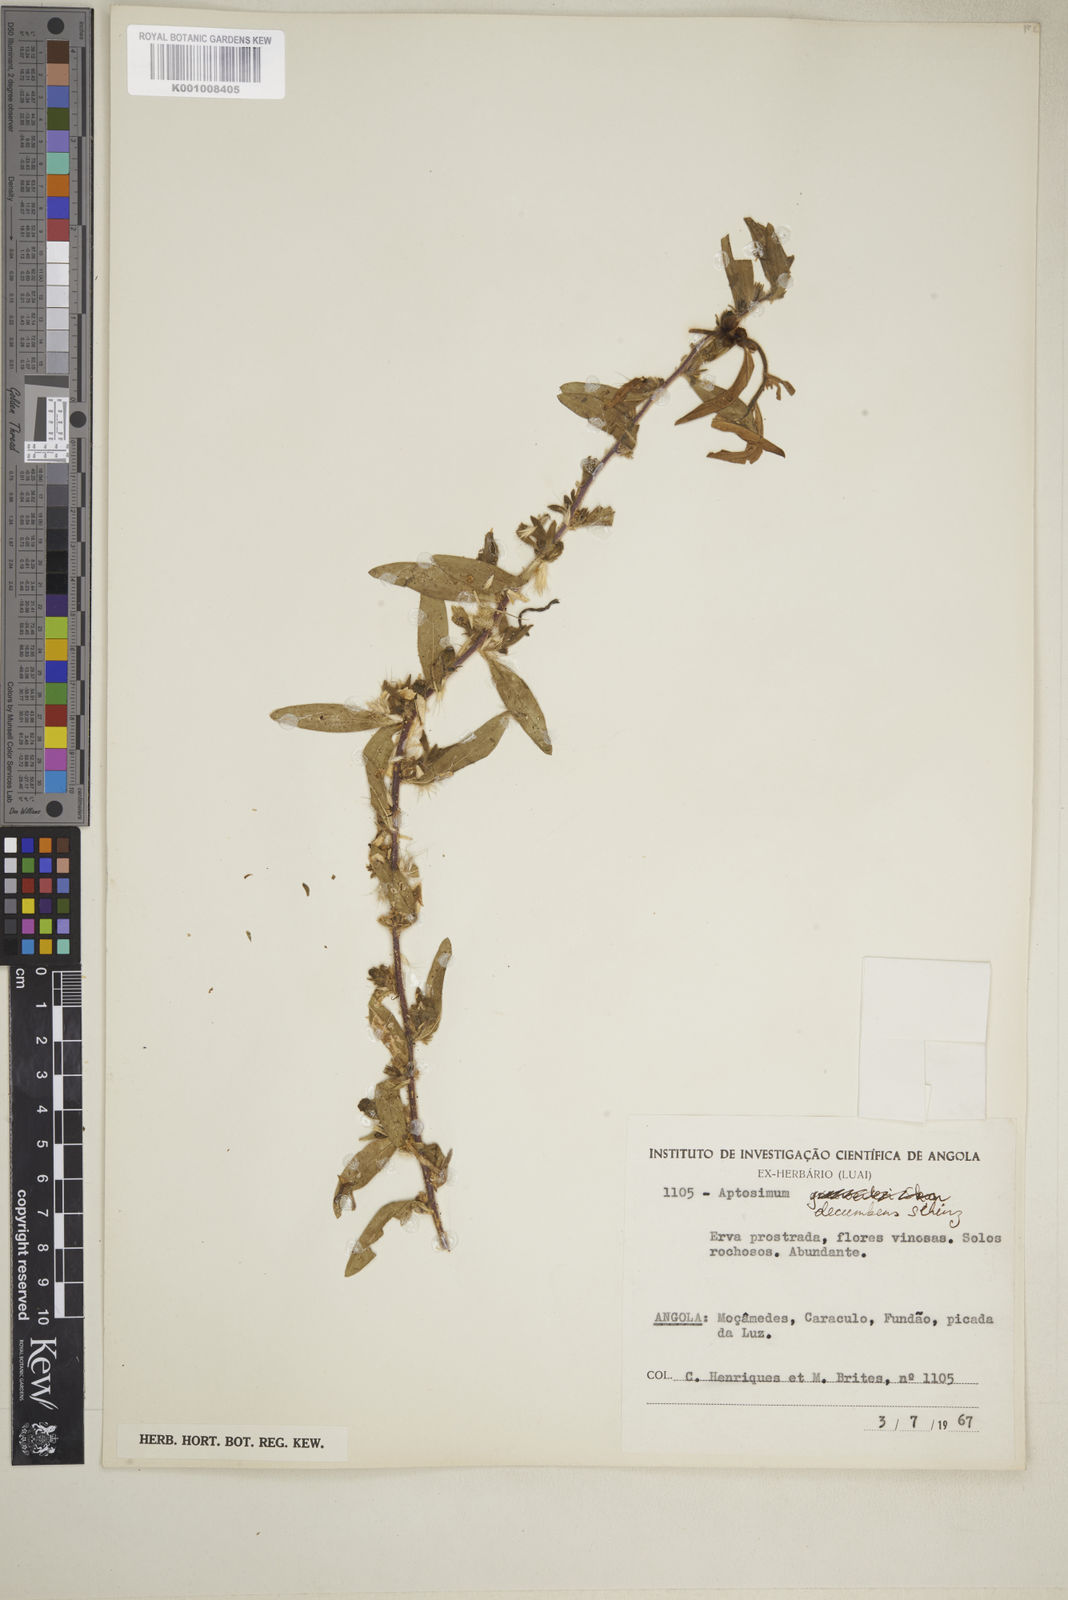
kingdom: Plantae
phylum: Tracheophyta
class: Magnoliopsida
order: Lamiales
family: Scrophulariaceae
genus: Aptosimum
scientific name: Aptosimum decumbens
